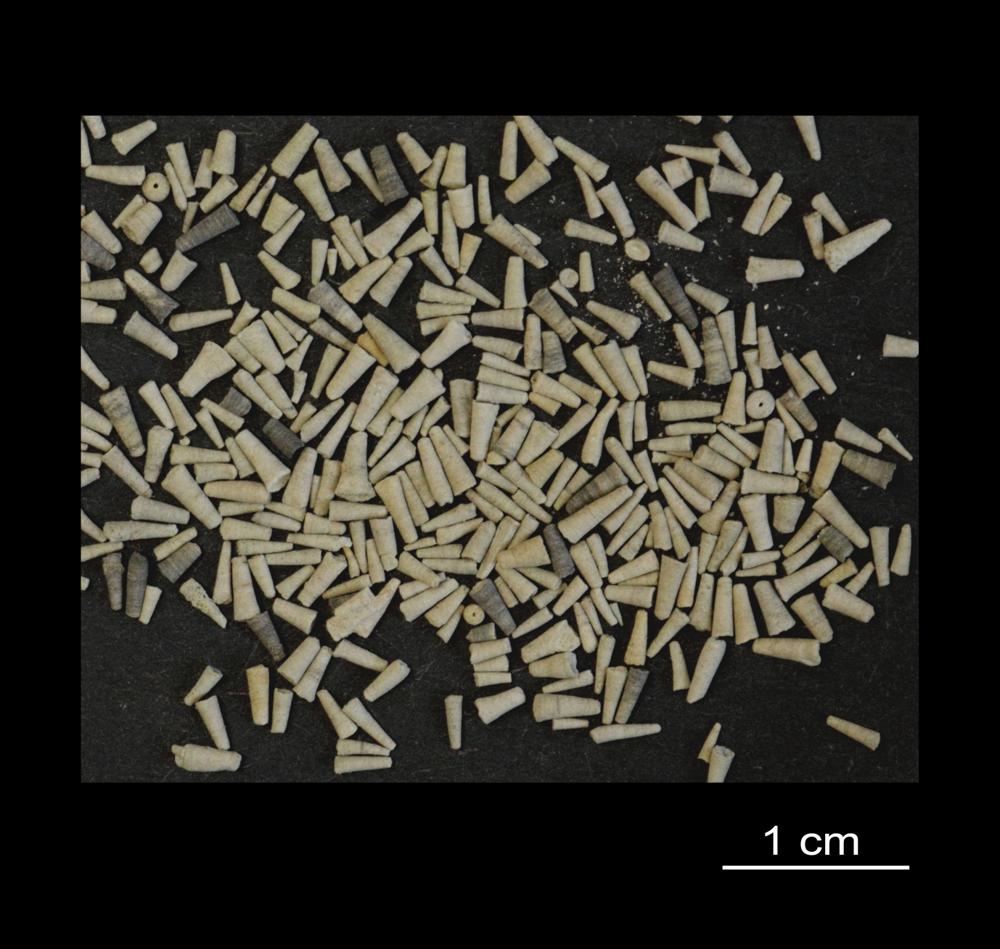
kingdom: Animalia
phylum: Annelida
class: Polychaeta
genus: Volborthella
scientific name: Volborthella tenuis
